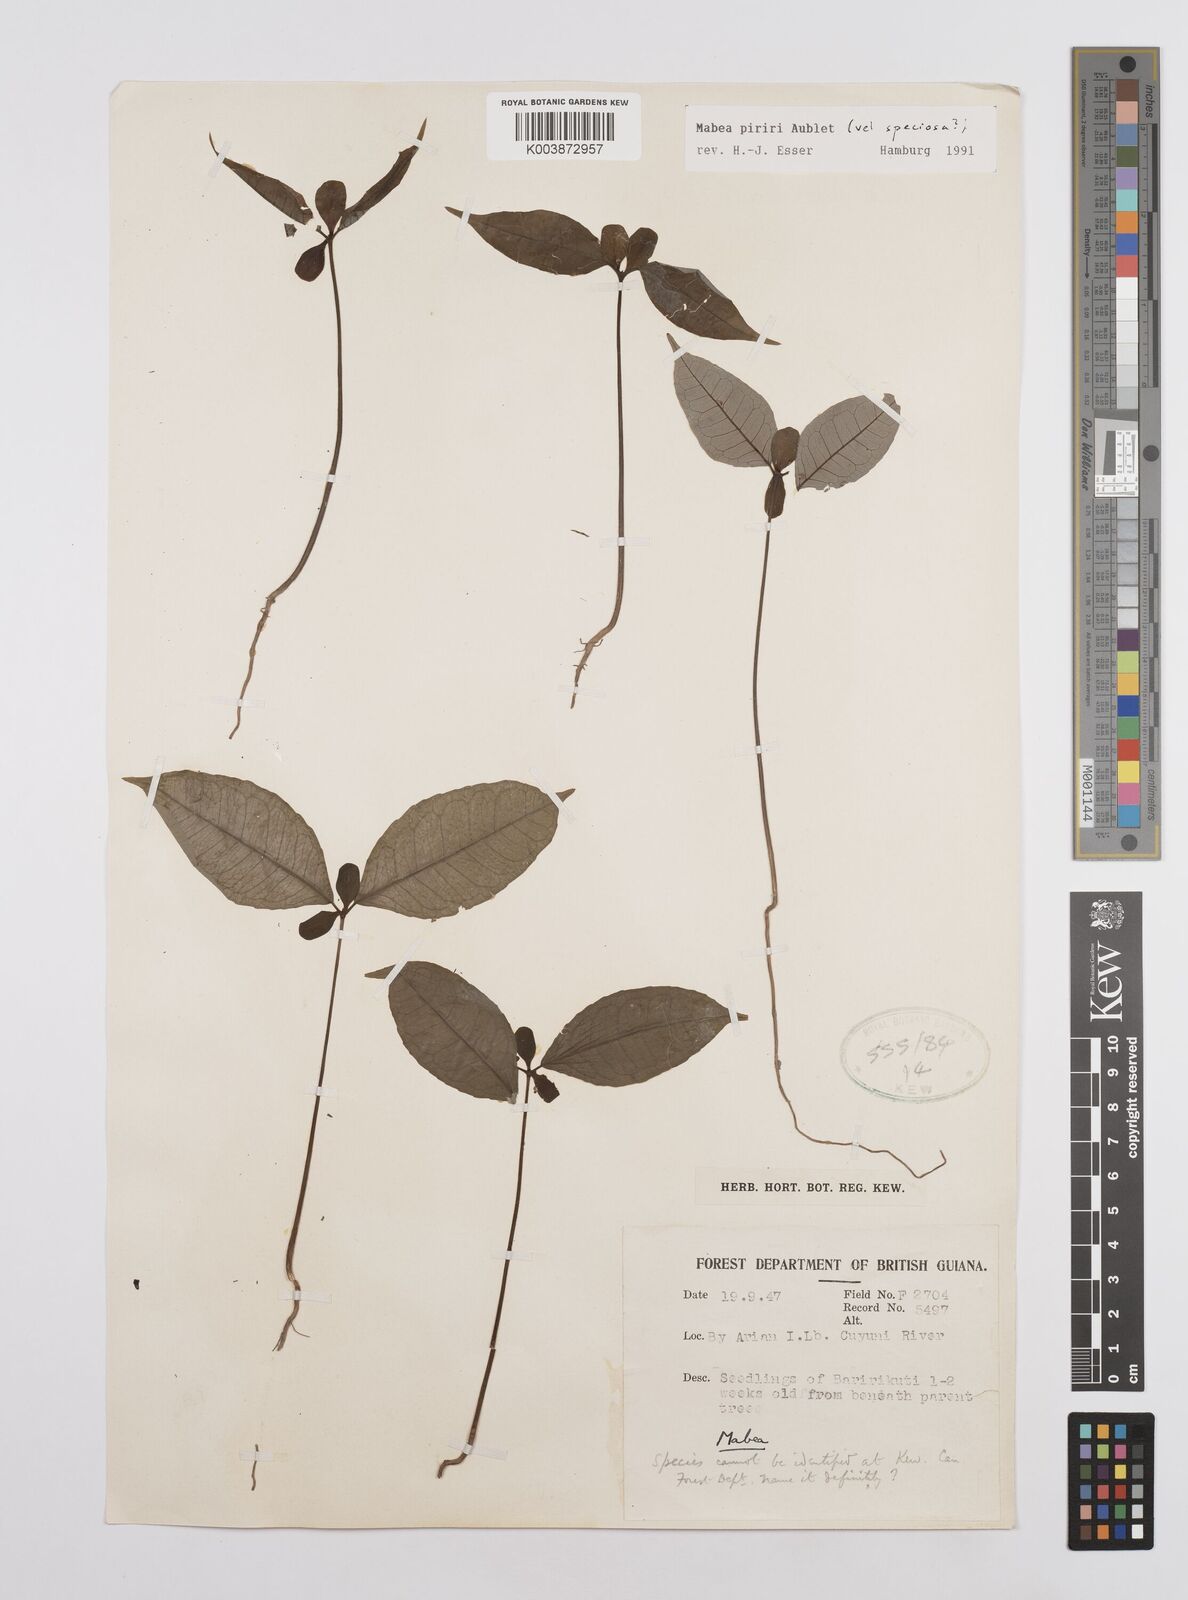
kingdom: Plantae
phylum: Tracheophyta
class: Magnoliopsida
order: Malpighiales
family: Euphorbiaceae
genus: Mabea
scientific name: Mabea piriri
